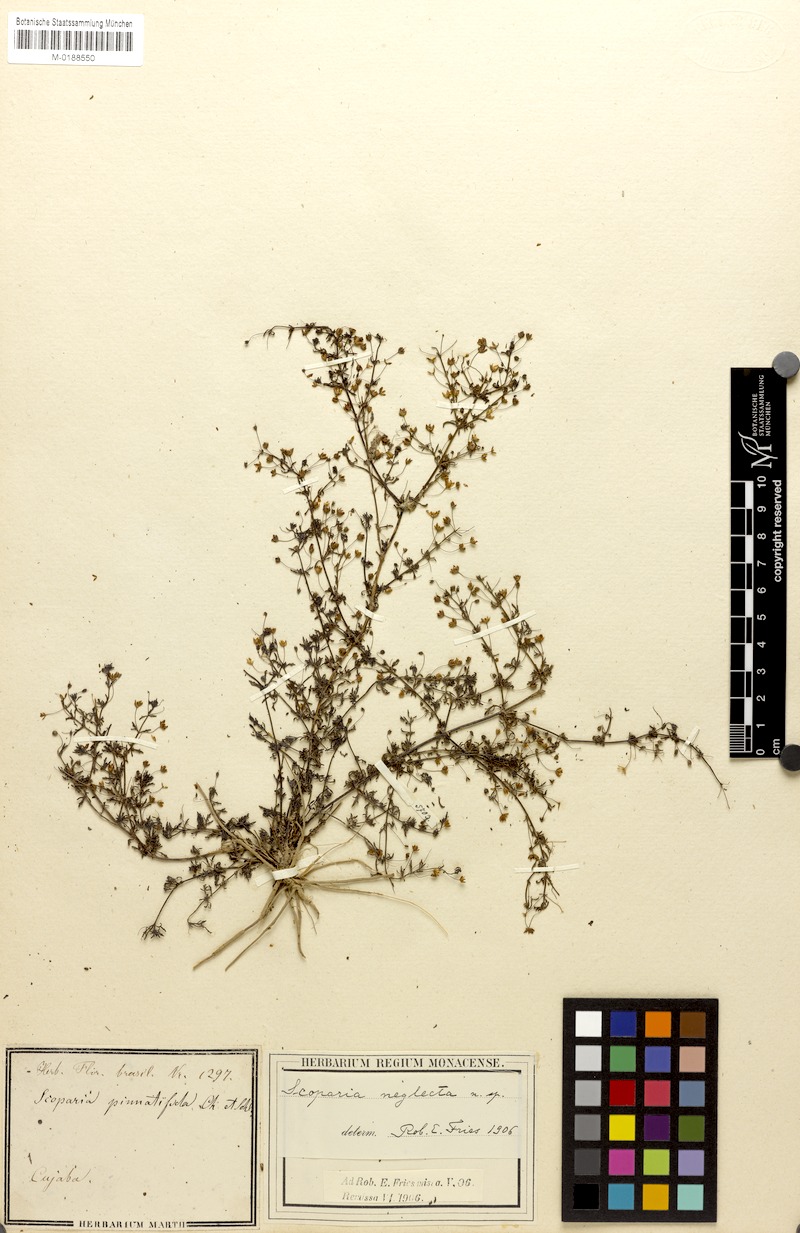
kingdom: Plantae
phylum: Tracheophyta
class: Magnoliopsida
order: Lamiales
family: Plantaginaceae
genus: Scoparia
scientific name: Scoparia montevidensis
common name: Broomwort
